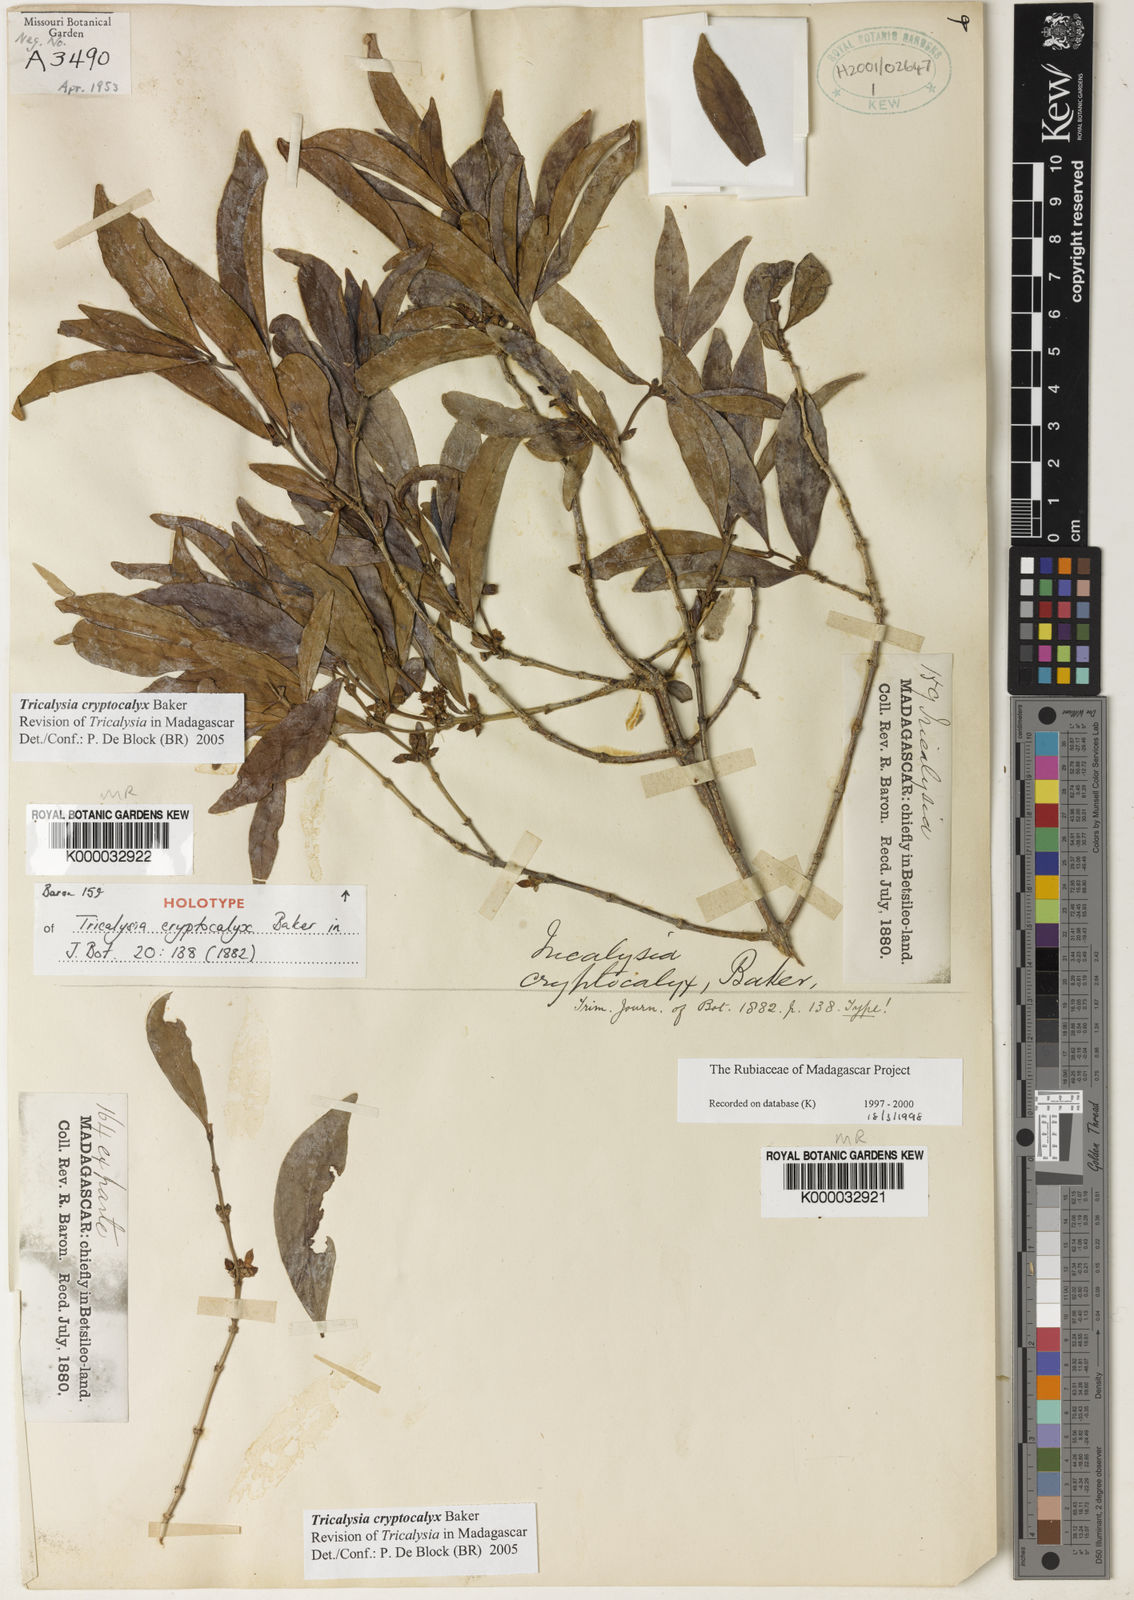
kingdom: Plantae
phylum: Tracheophyta
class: Magnoliopsida
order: Gentianales
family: Rubiaceae
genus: Tricalysia
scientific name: Tricalysia cryptocalyx
